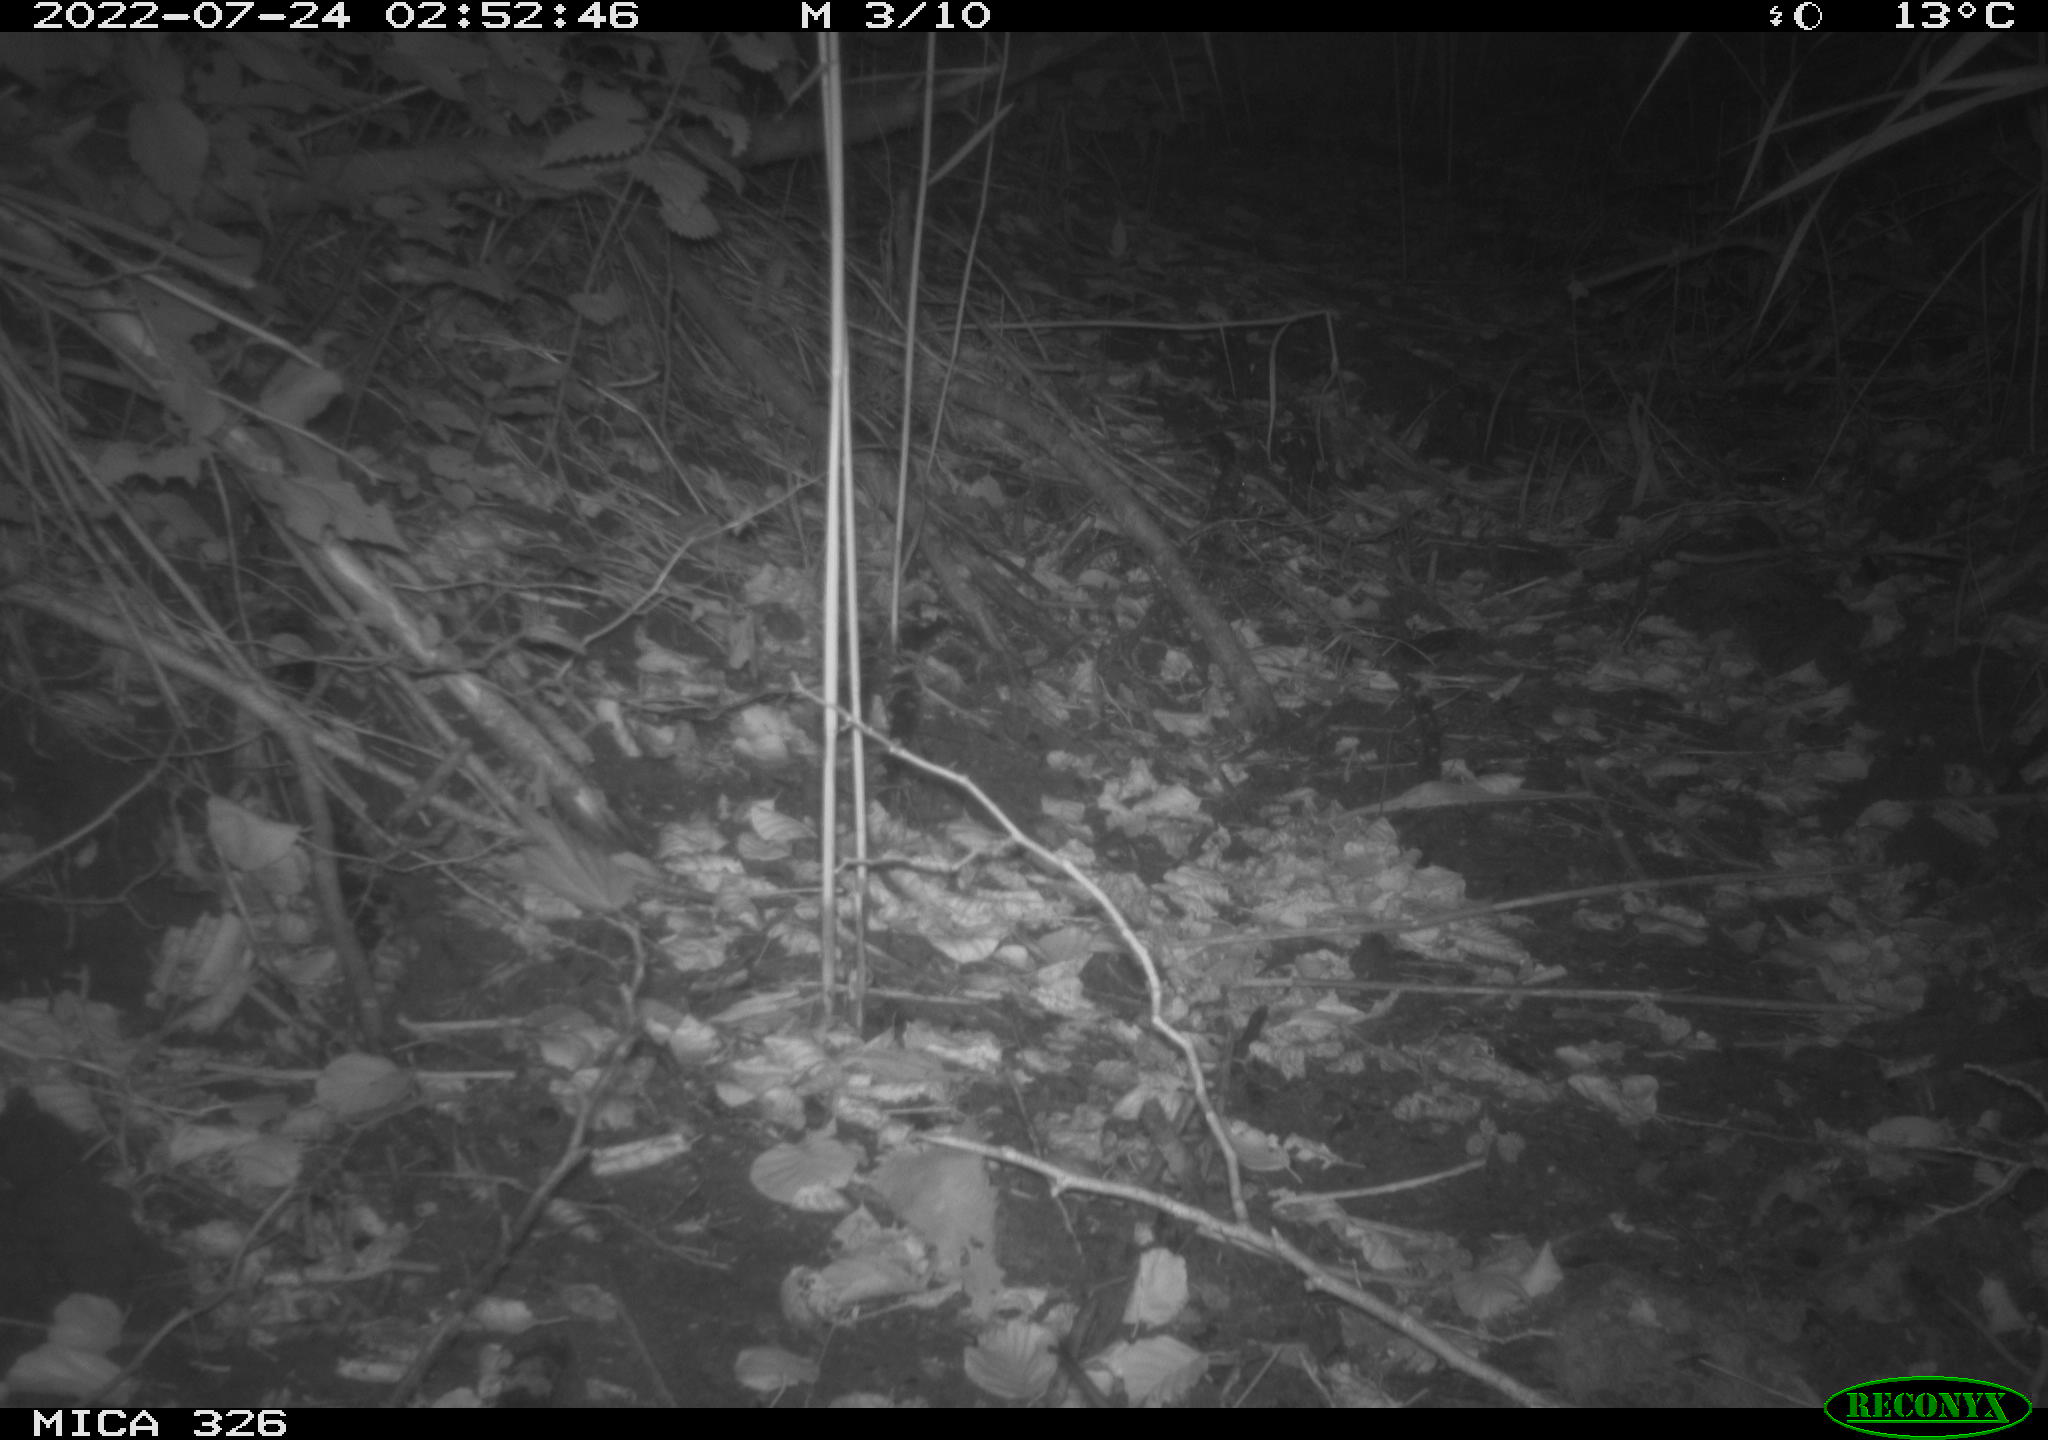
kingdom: Animalia
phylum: Chordata
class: Mammalia
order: Rodentia
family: Muridae
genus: Rattus
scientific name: Rattus norvegicus
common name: Brown rat
